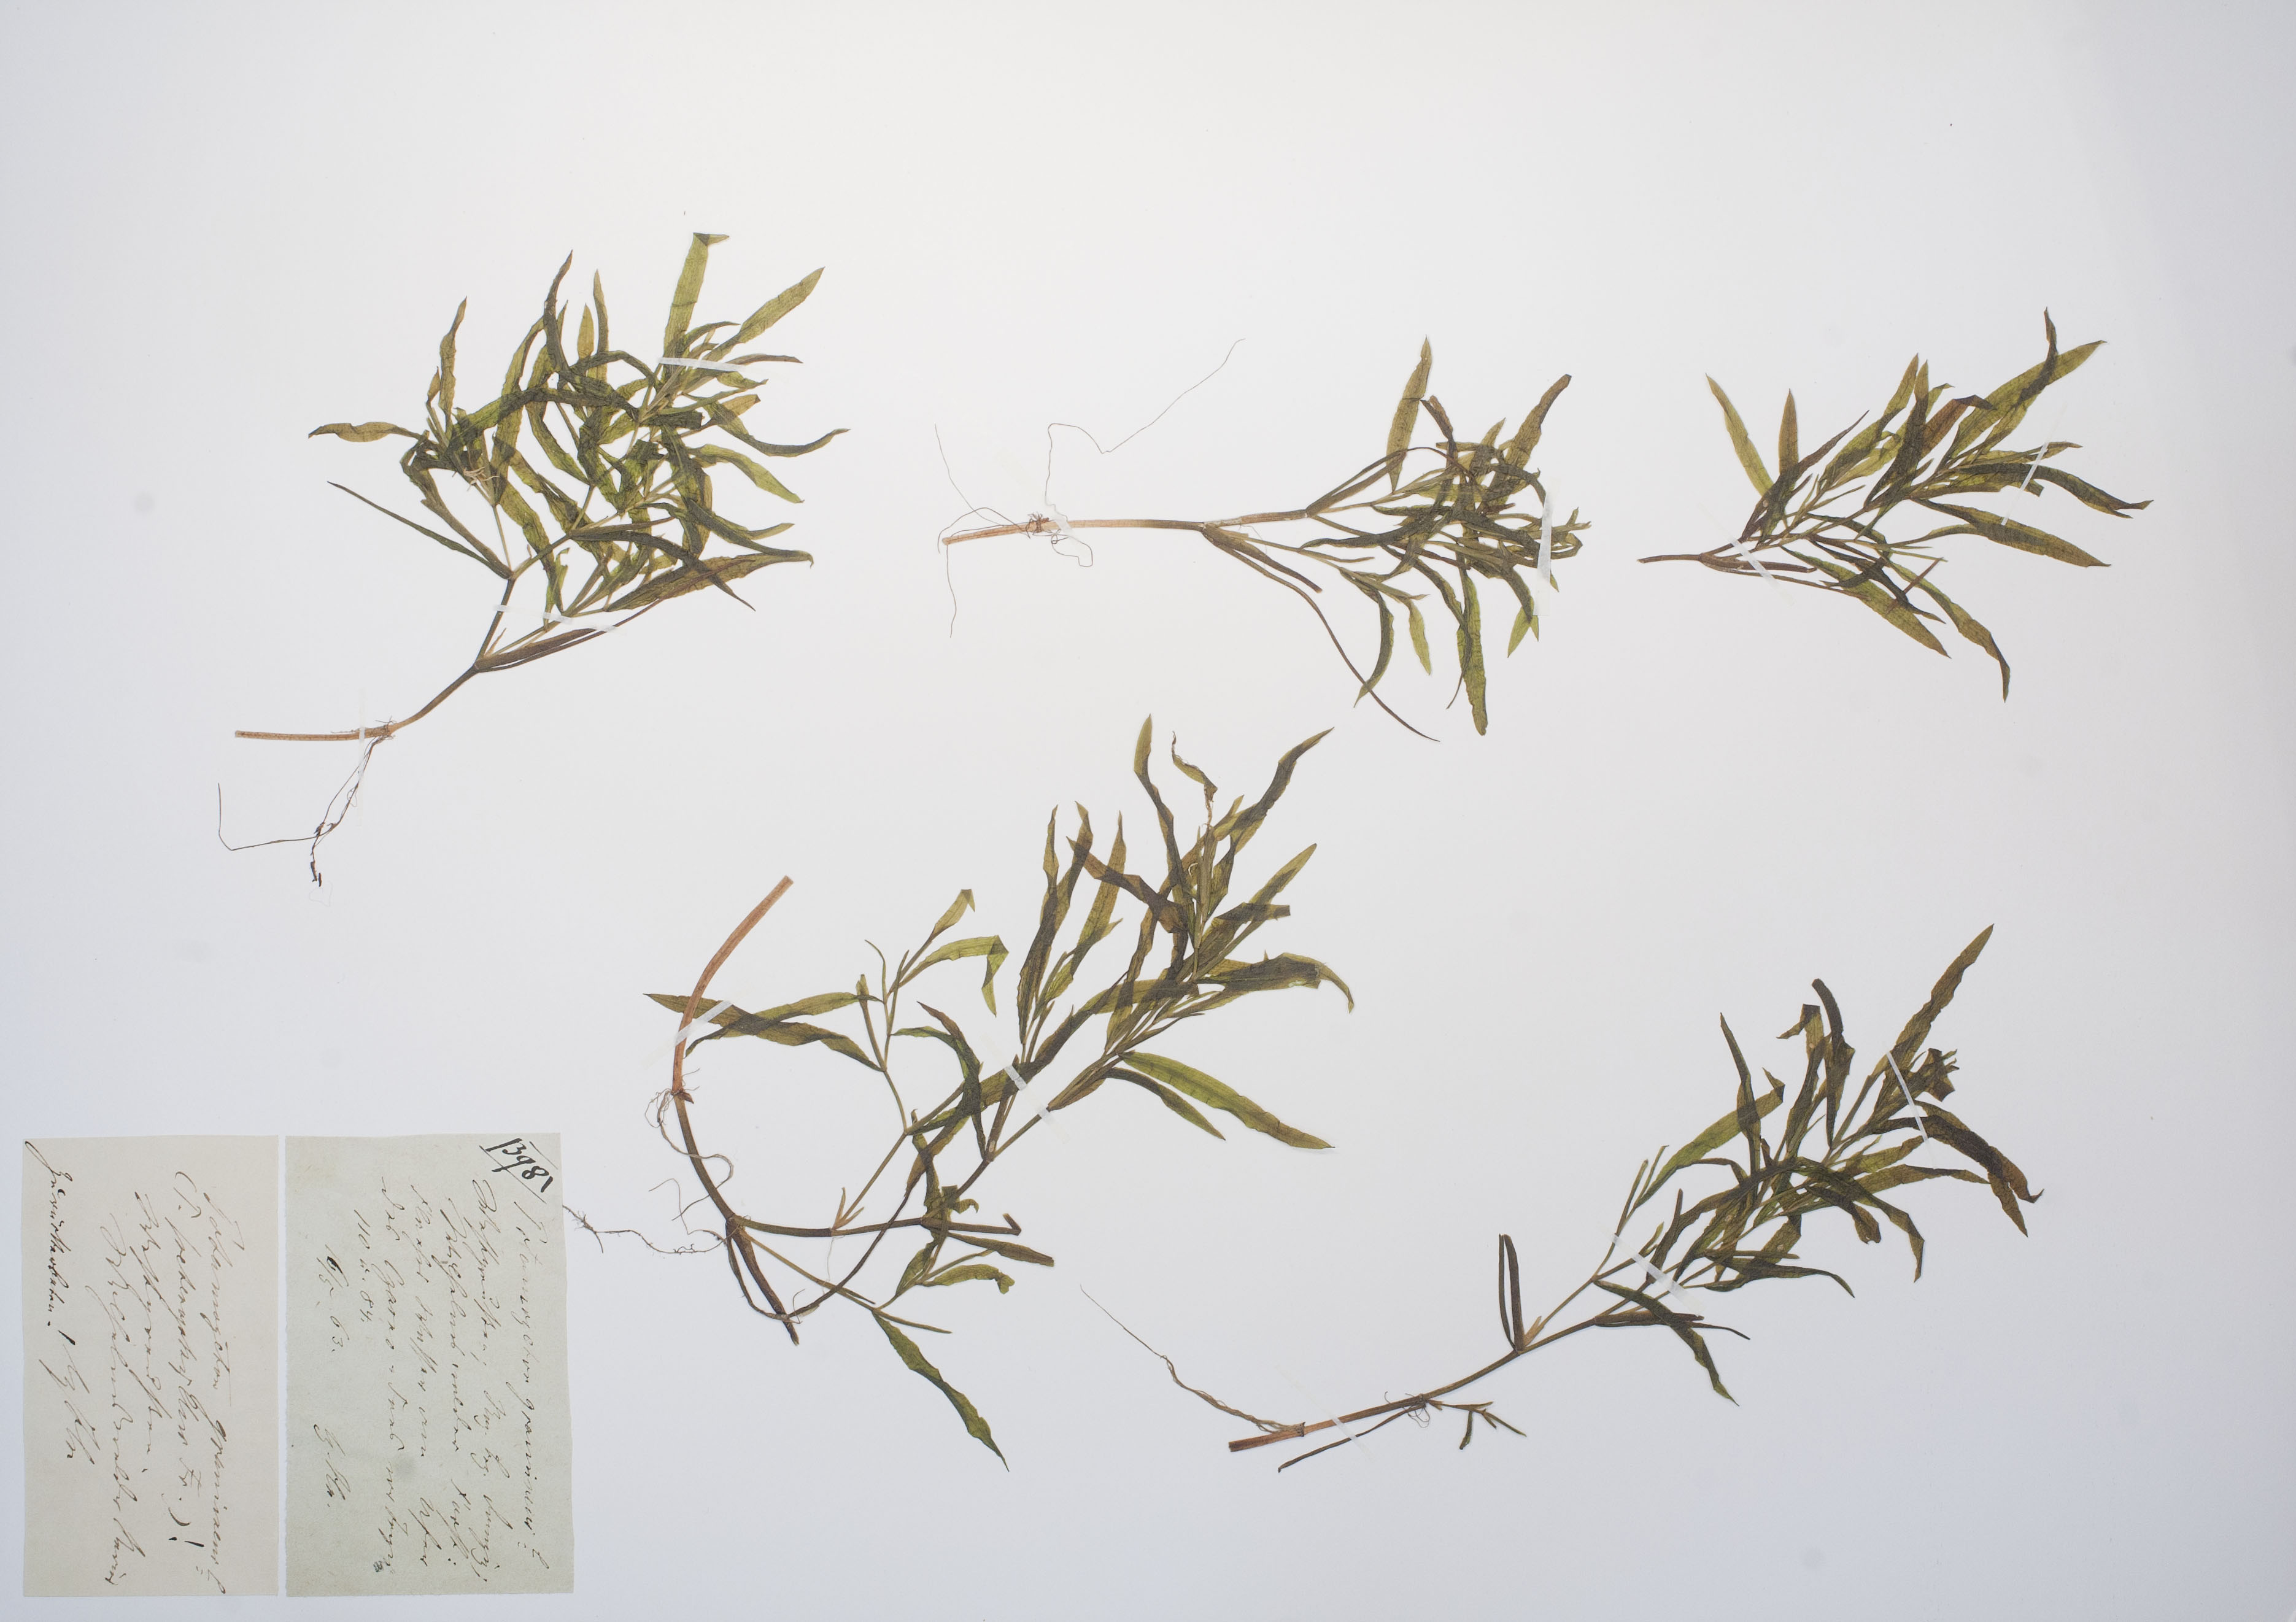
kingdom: Plantae
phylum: Tracheophyta
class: Liliopsida
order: Alismatales
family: Potamogetonaceae
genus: Potamogeton
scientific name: Potamogeton gramineus
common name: Various-leaved pondweed
